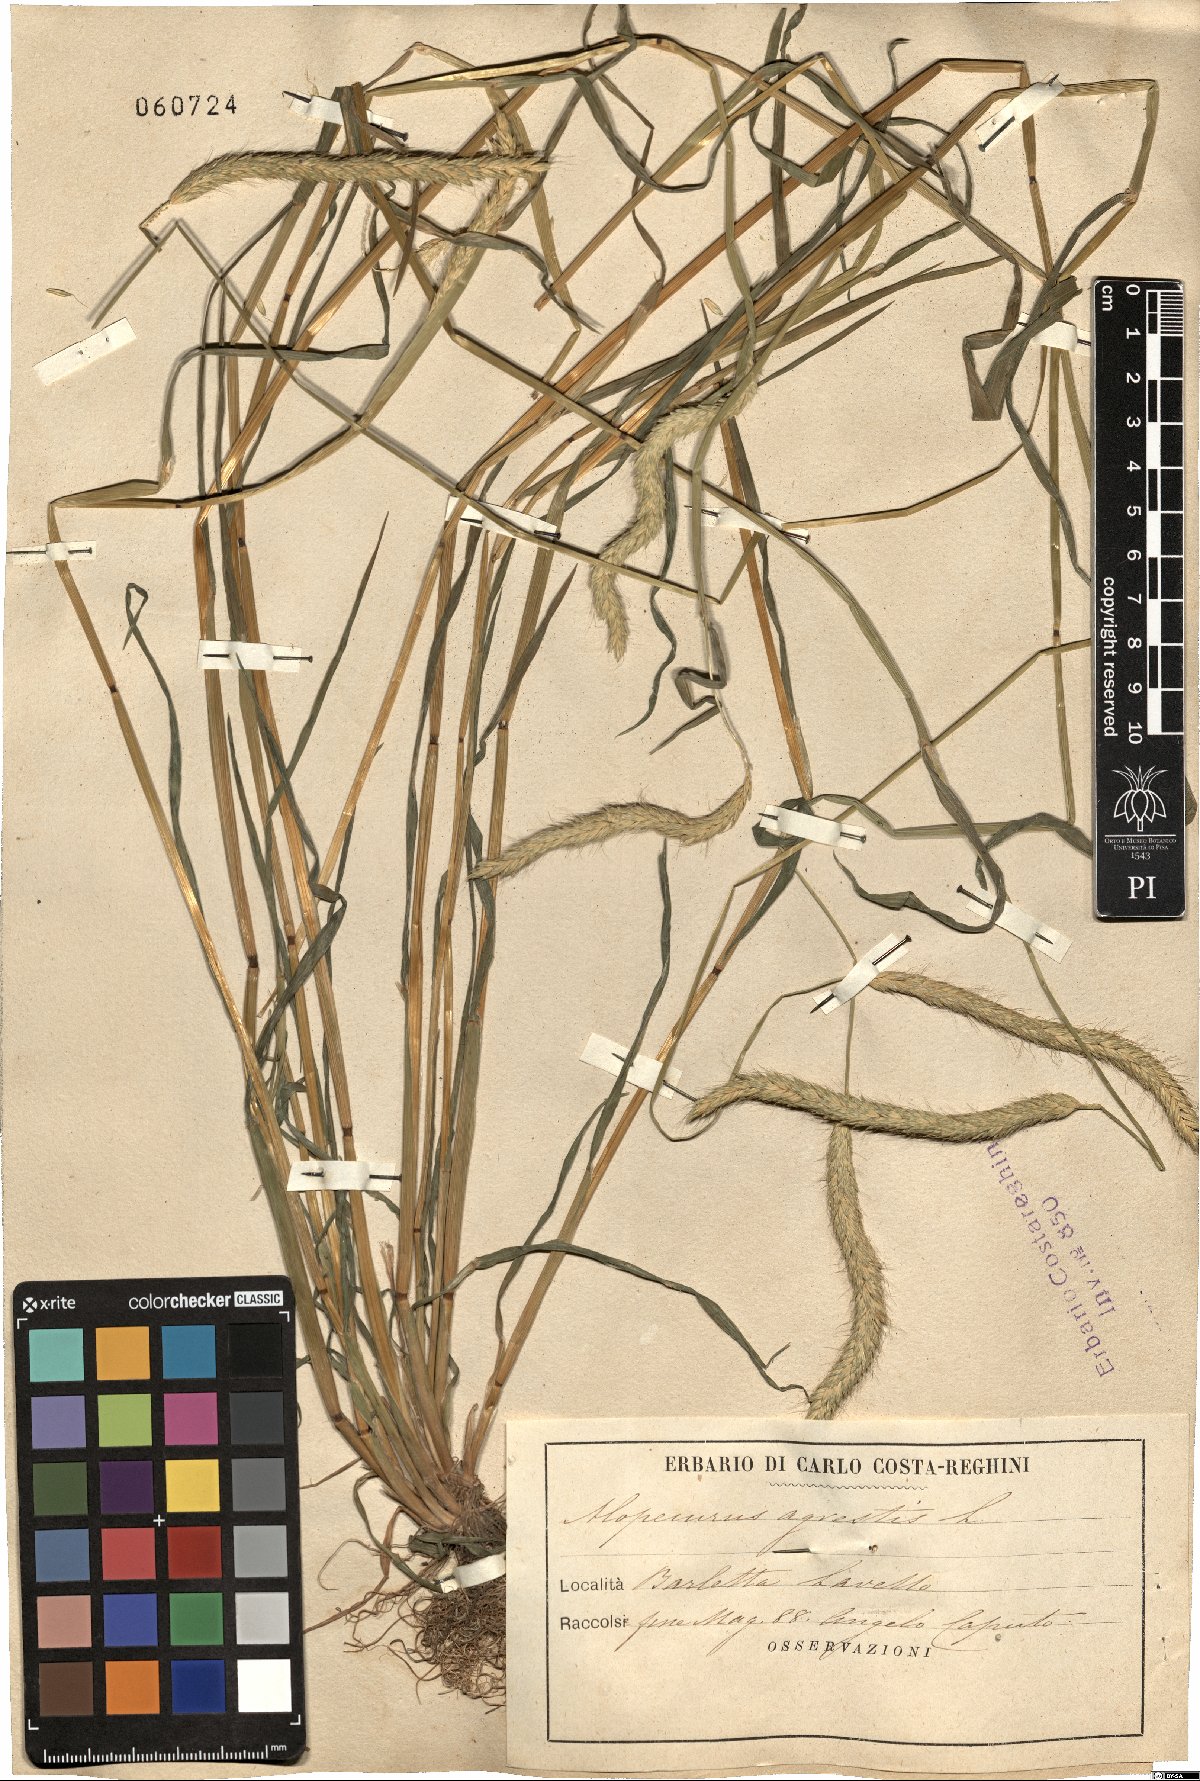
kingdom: Plantae
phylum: Tracheophyta
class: Liliopsida
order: Poales
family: Poaceae
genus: Alopecurus
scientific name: Alopecurus myosuroides
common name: Black-grass
